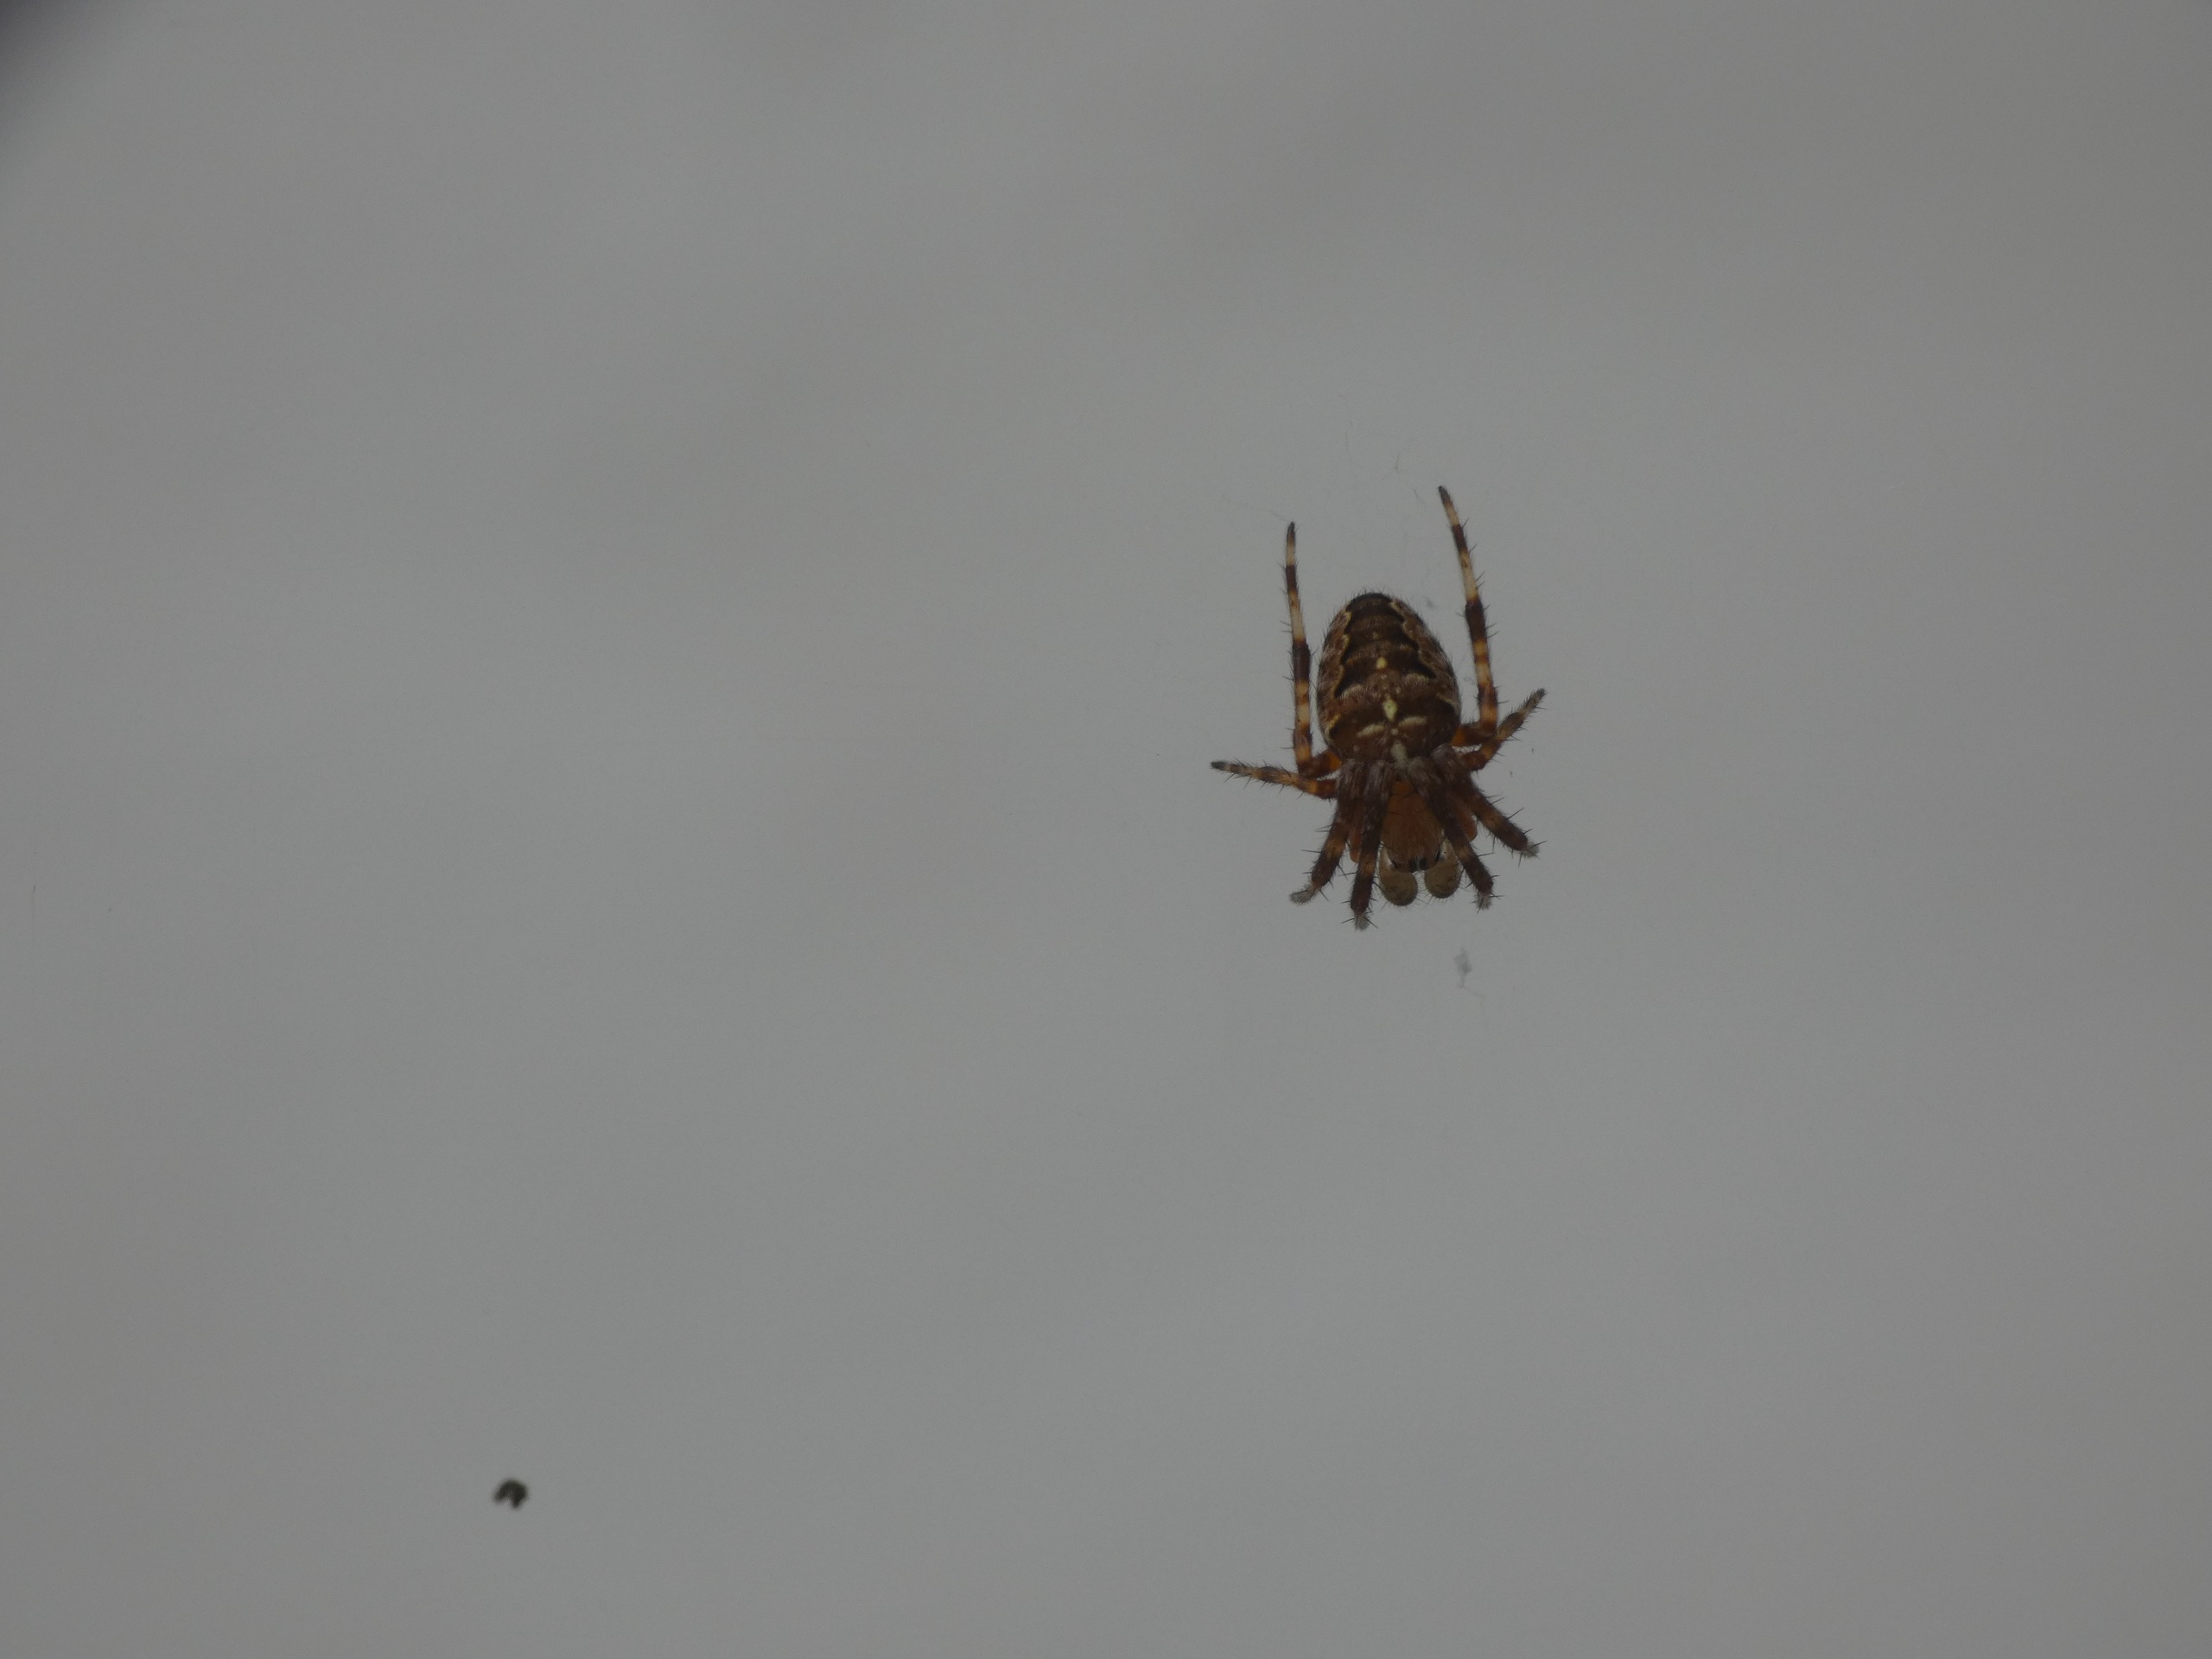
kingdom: Animalia
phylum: Arthropoda
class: Arachnida
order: Araneae
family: Araneidae
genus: Araneus
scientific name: Araneus diadematus
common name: Korsedderkop
